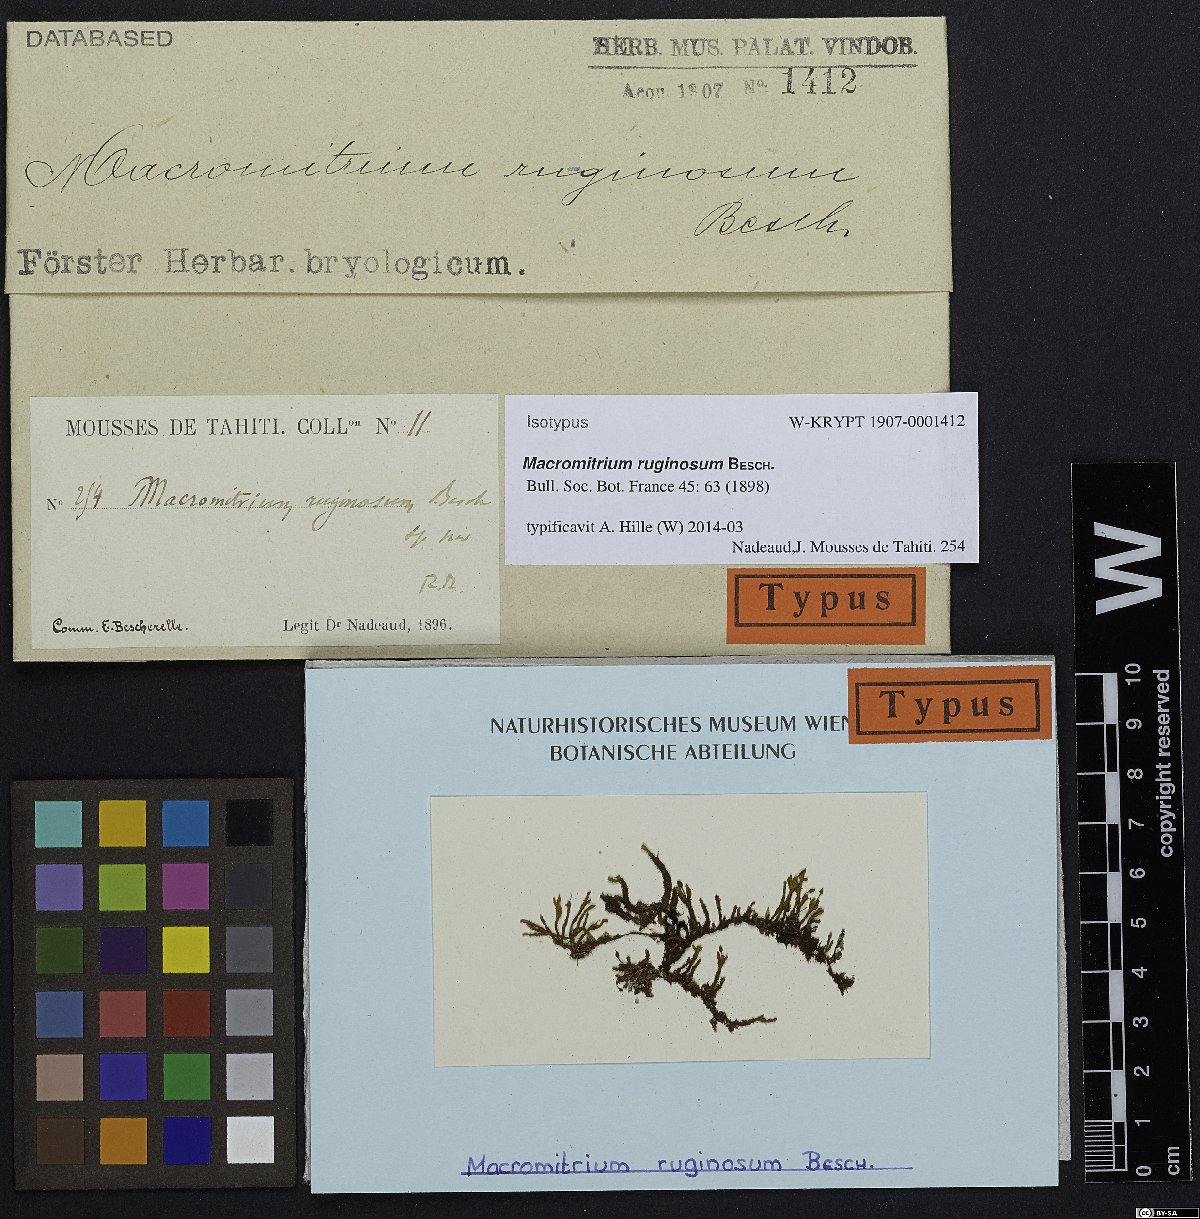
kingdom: Plantae
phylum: Bryophyta
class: Bryopsida
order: Orthotrichales
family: Orthotrichaceae
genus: Macromitrium
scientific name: Macromitrium ruginosum
